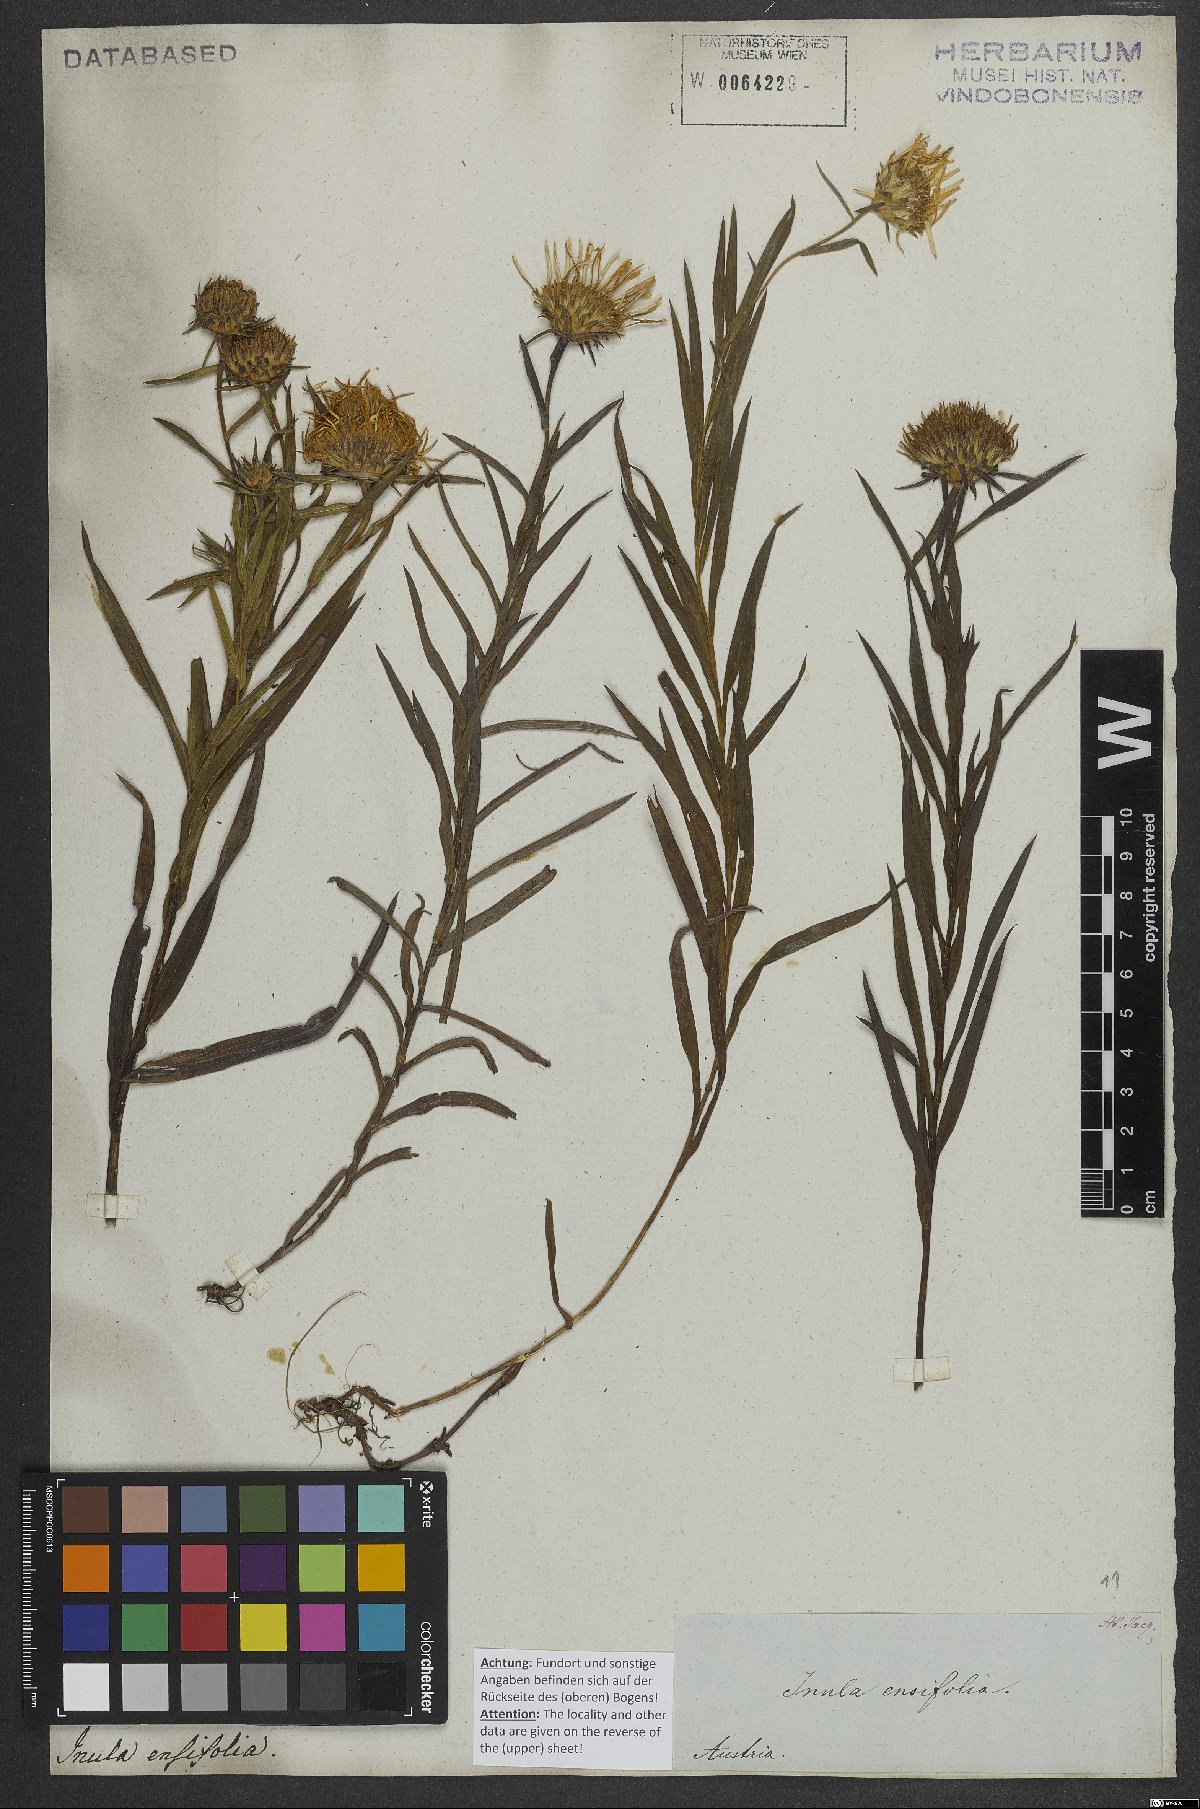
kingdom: Plantae
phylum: Tracheophyta
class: Magnoliopsida
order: Asterales
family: Asteraceae
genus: Pentanema
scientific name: Pentanema ensifolium
